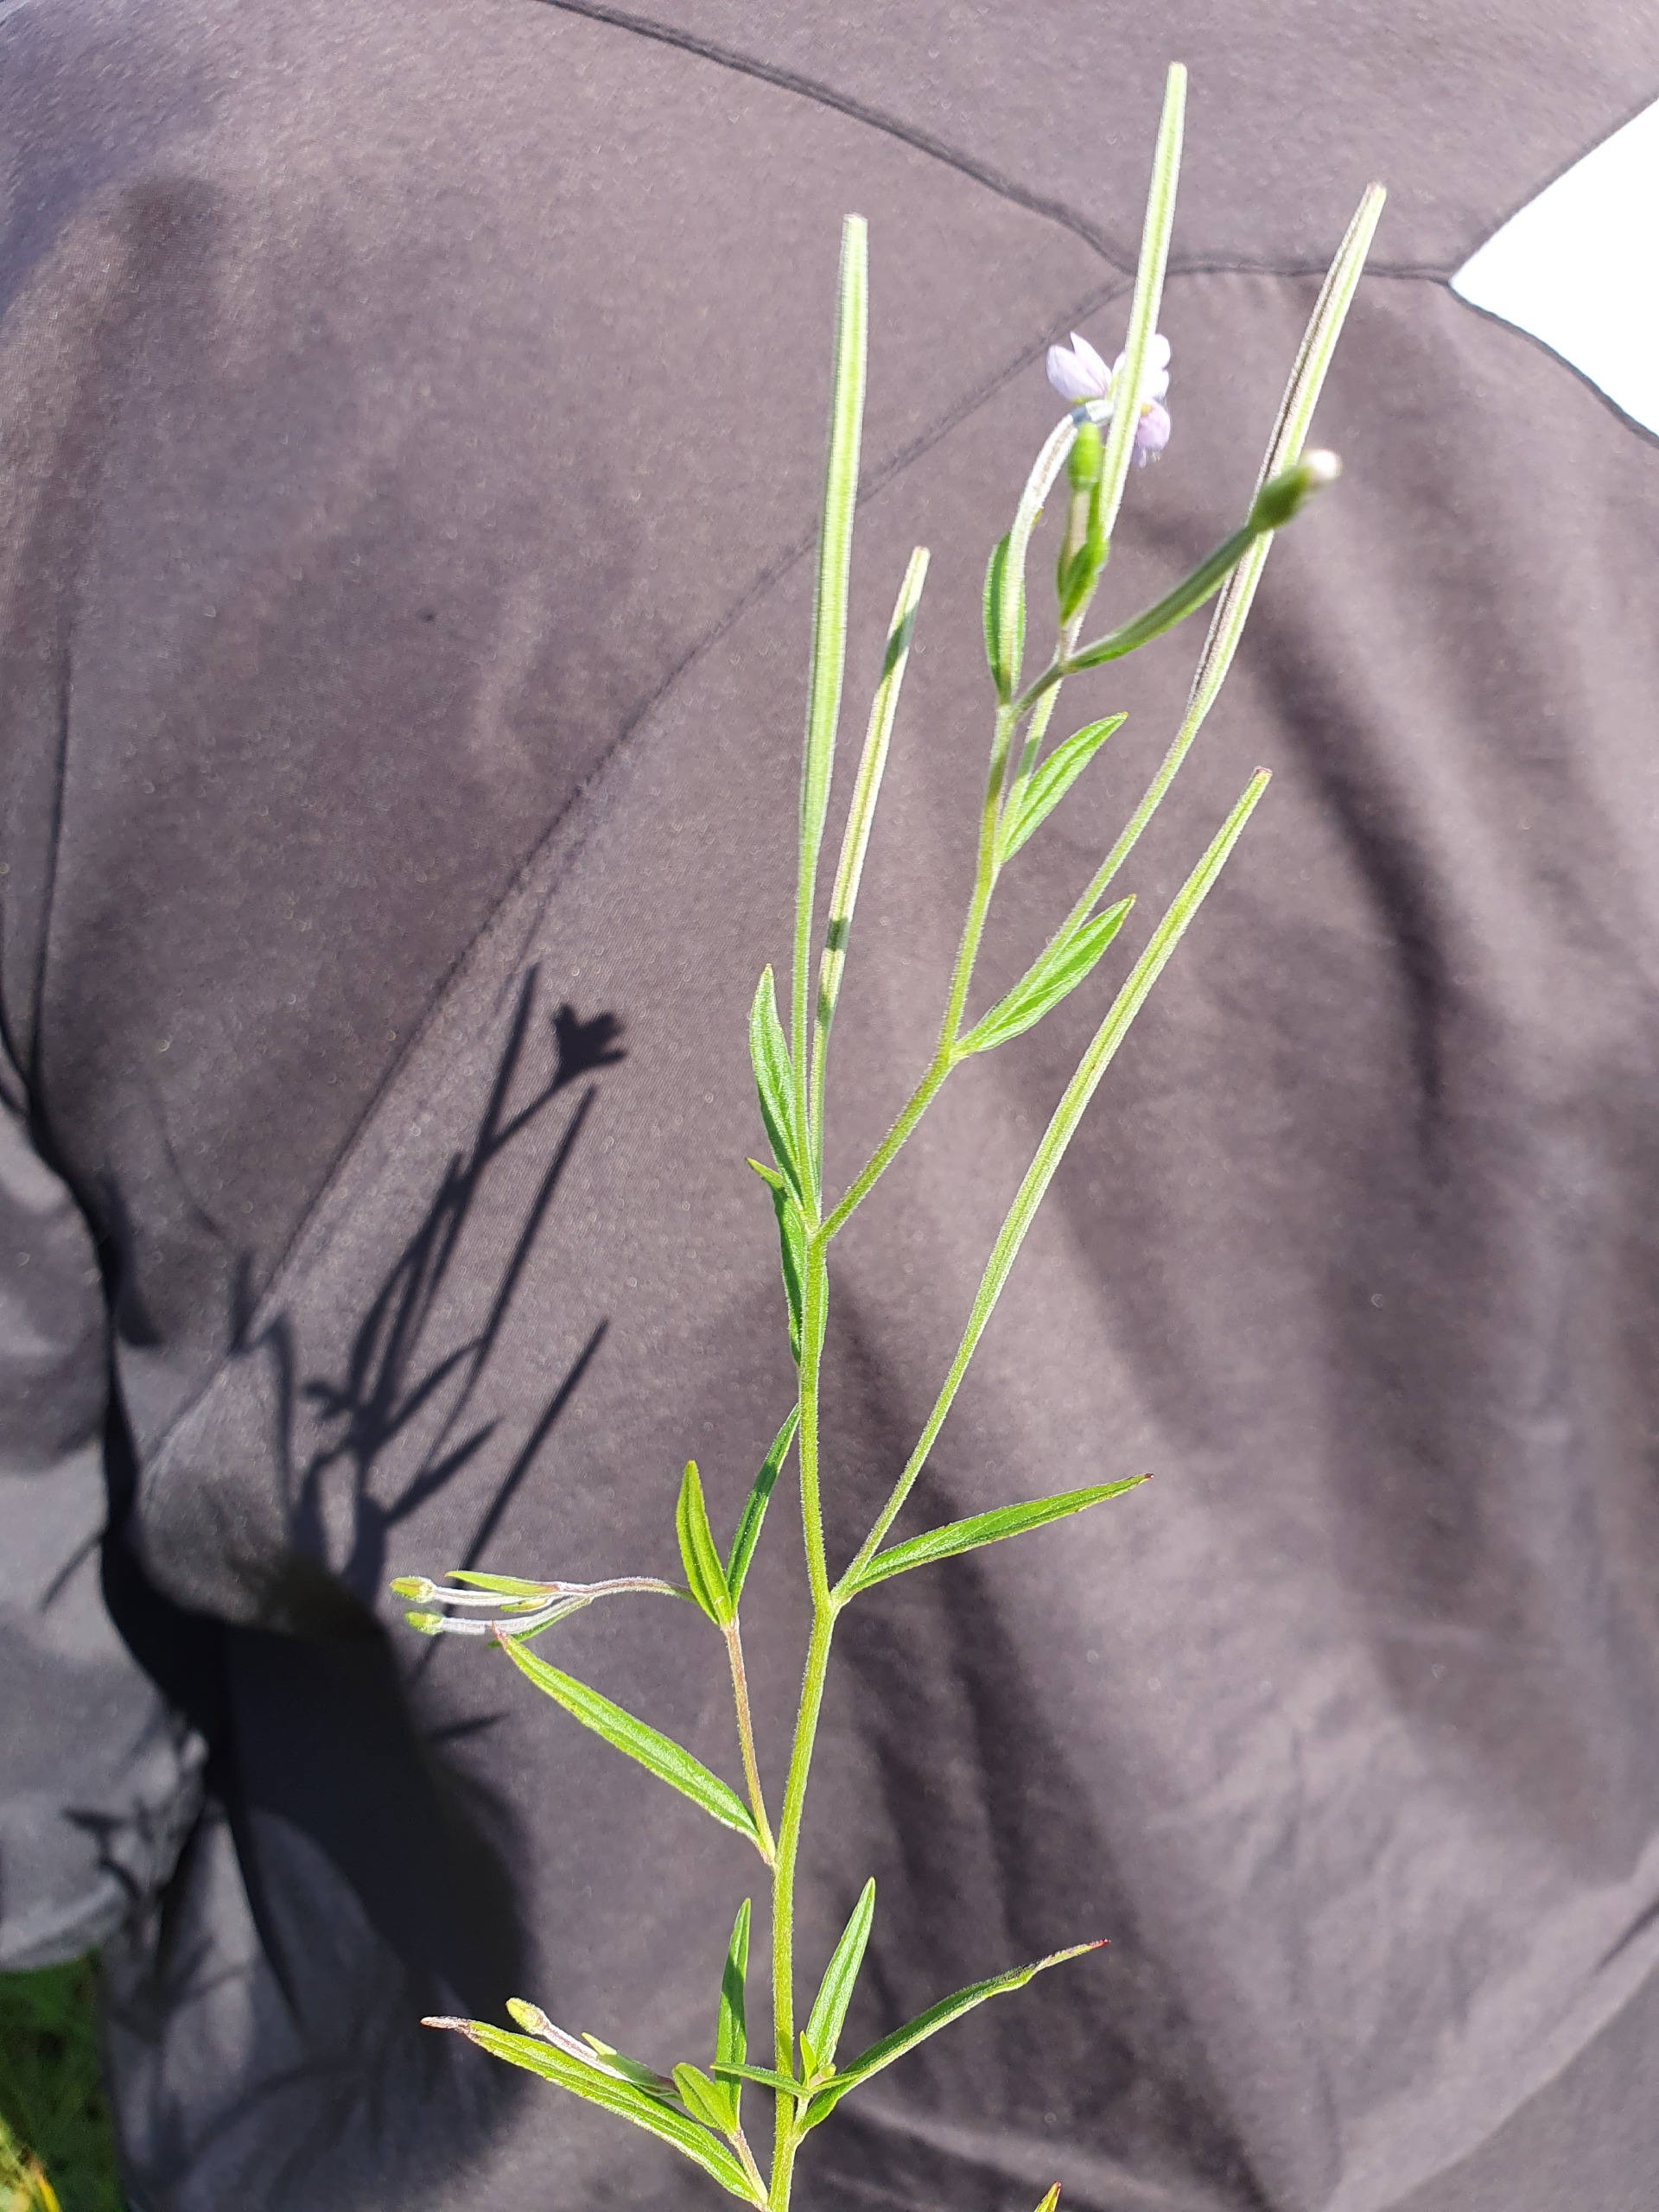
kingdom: Plantae
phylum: Tracheophyta
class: Magnoliopsida
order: Myrtales
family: Onagraceae
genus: Epilobium
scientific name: Epilobium palustre
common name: Kær-dueurt
